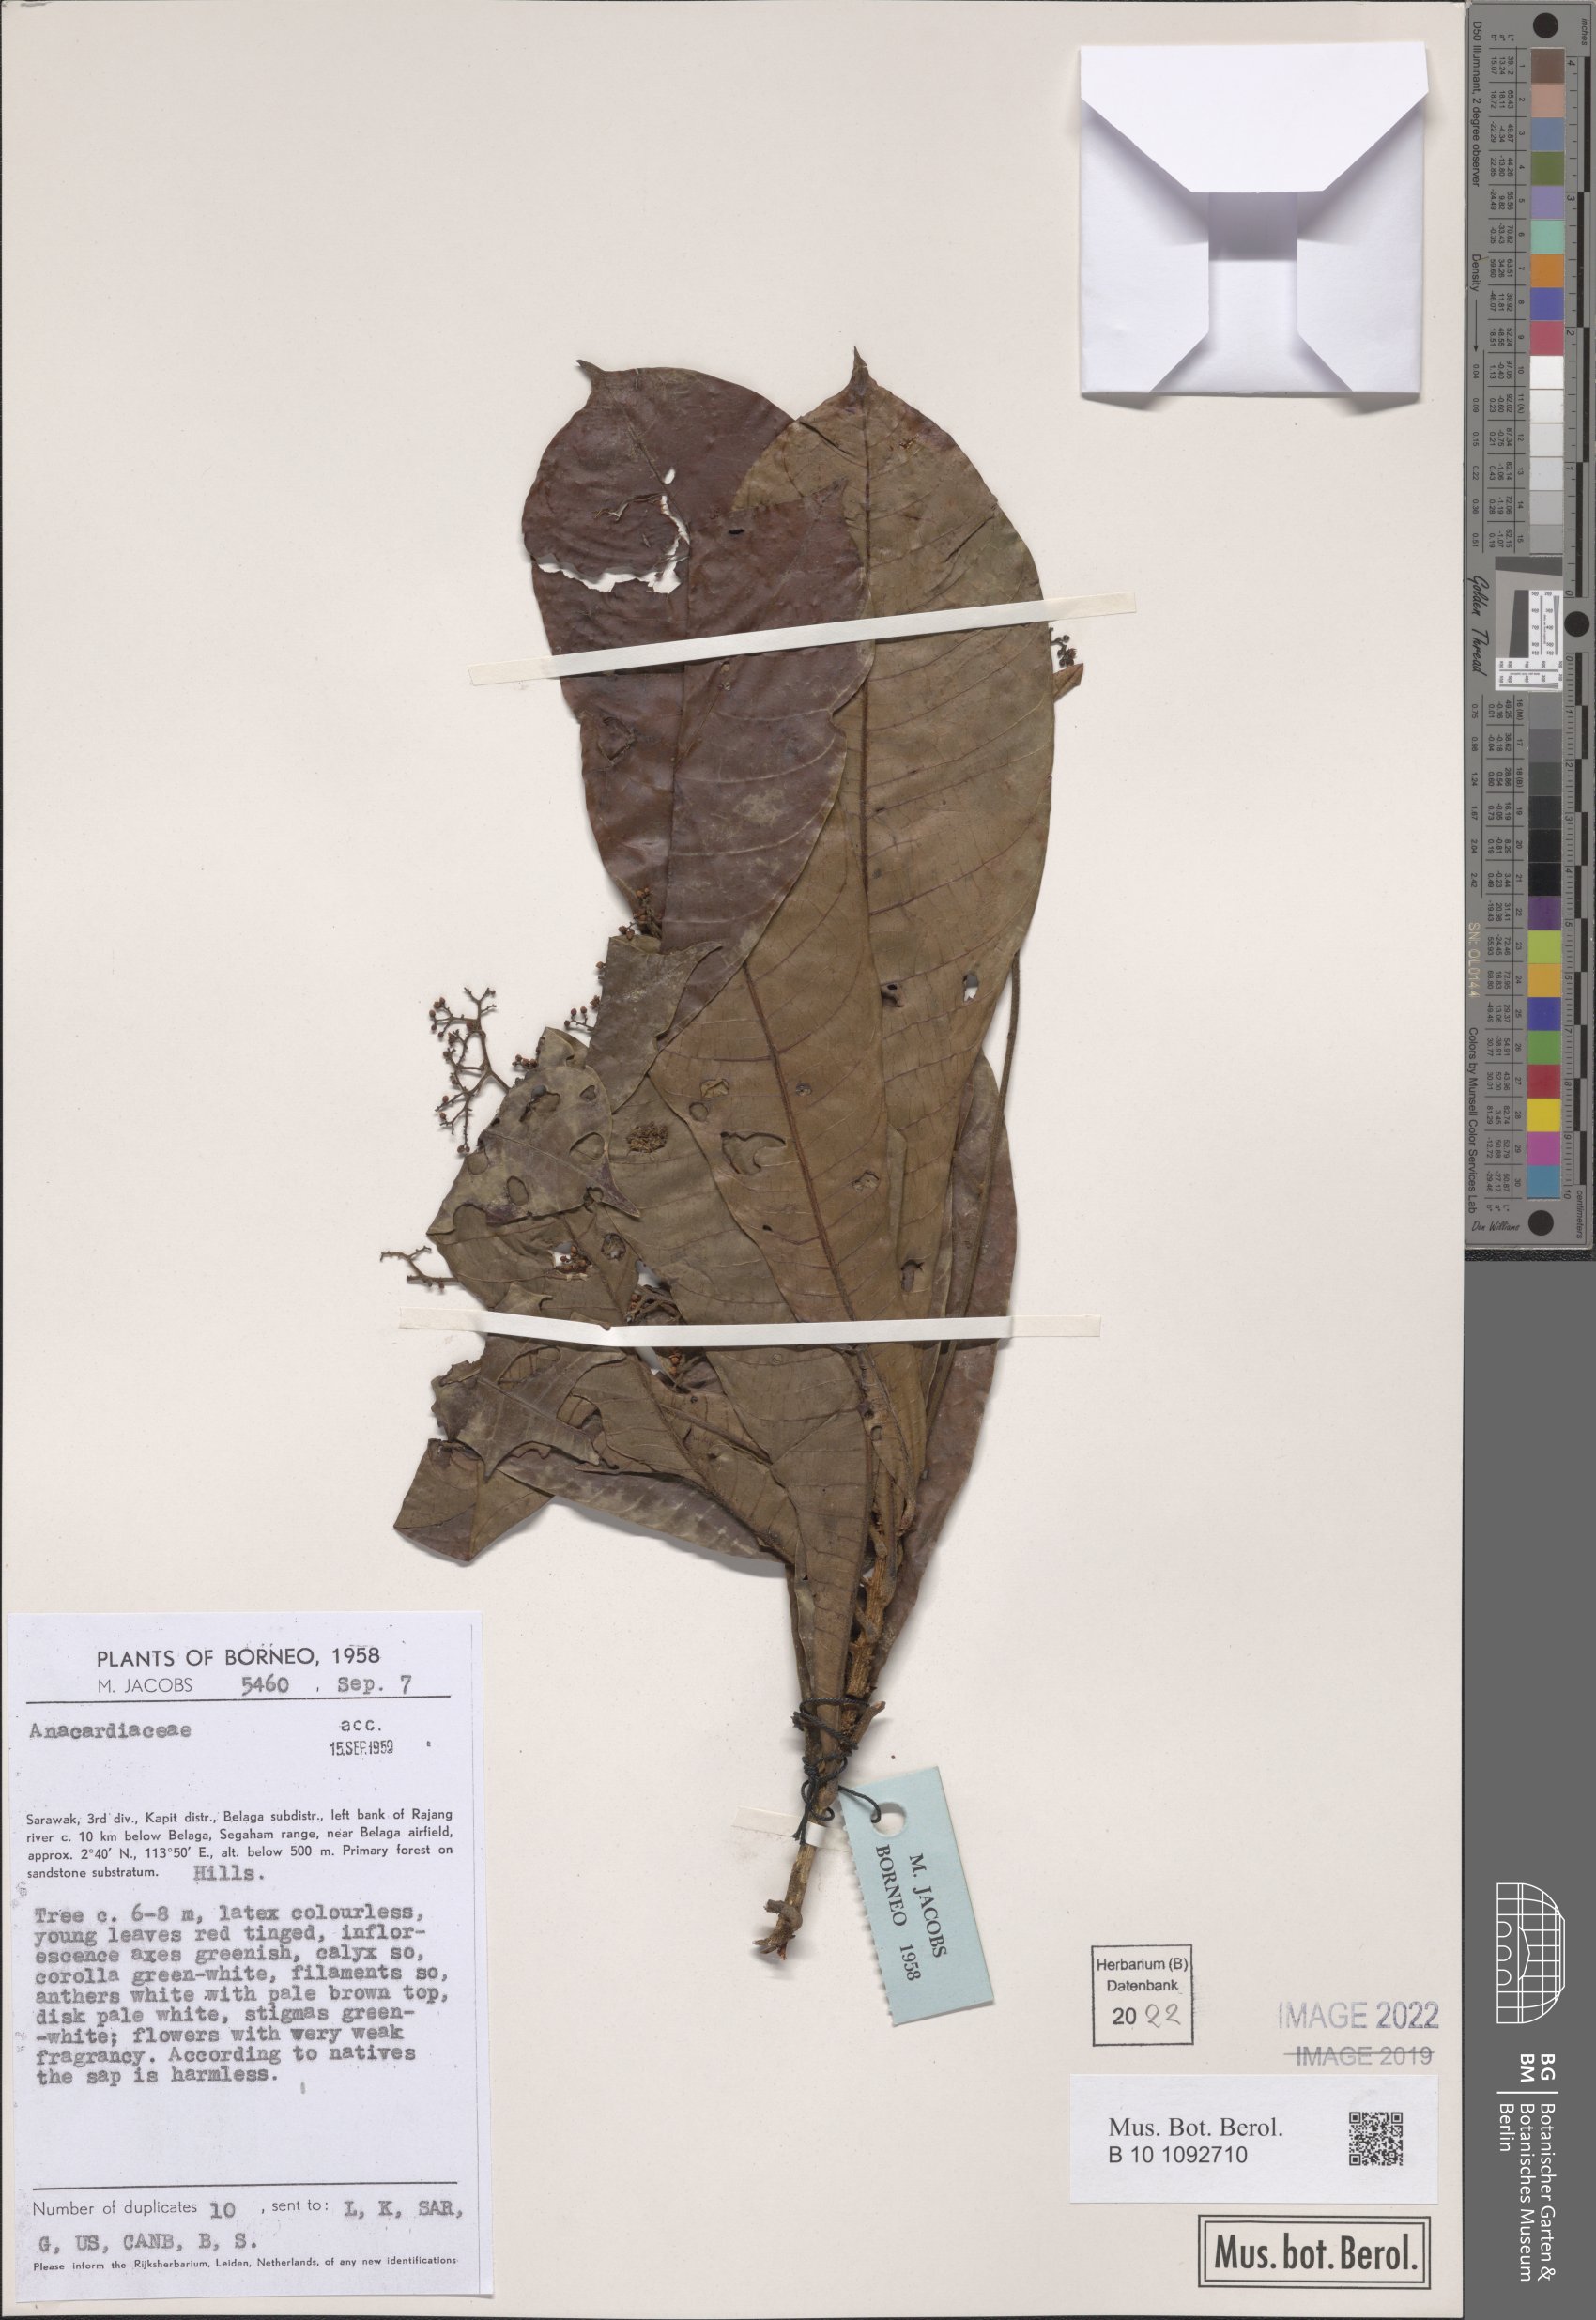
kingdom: Plantae
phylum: Tracheophyta
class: Magnoliopsida
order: Sapindales
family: Anacardiaceae
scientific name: Anacardiaceae
